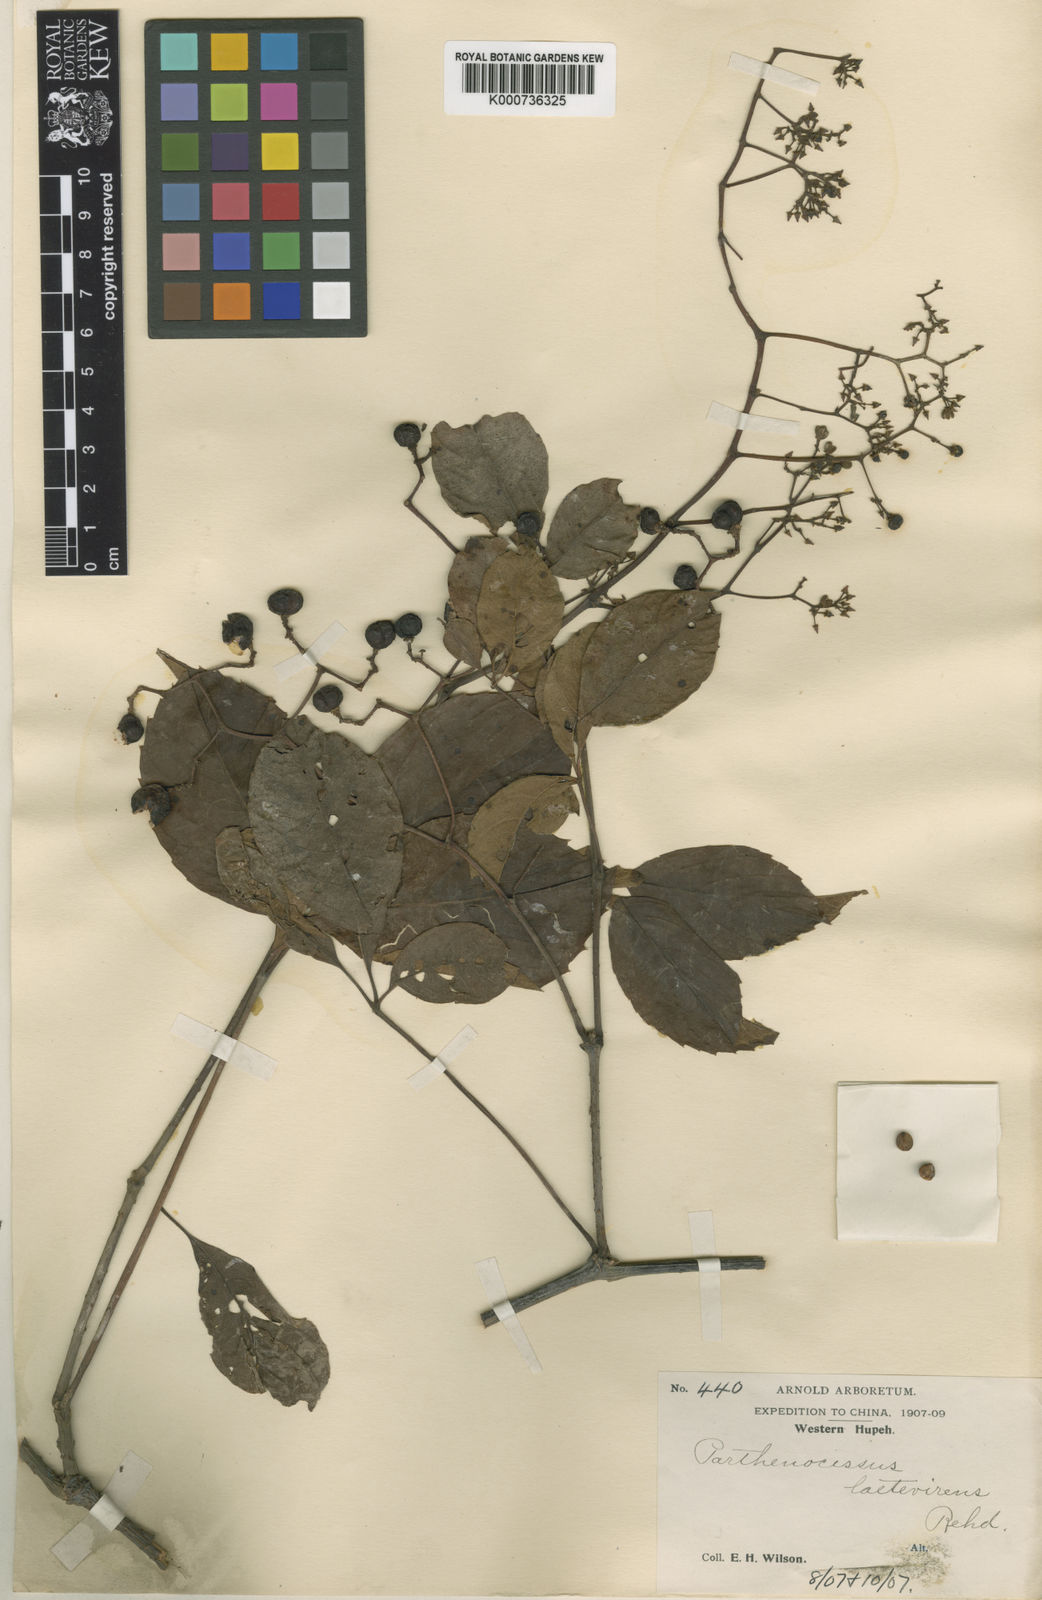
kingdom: Plantae
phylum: Tracheophyta
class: Magnoliopsida
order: Vitales
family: Vitaceae
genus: Parthenocissus
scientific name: Parthenocissus laetevirens
